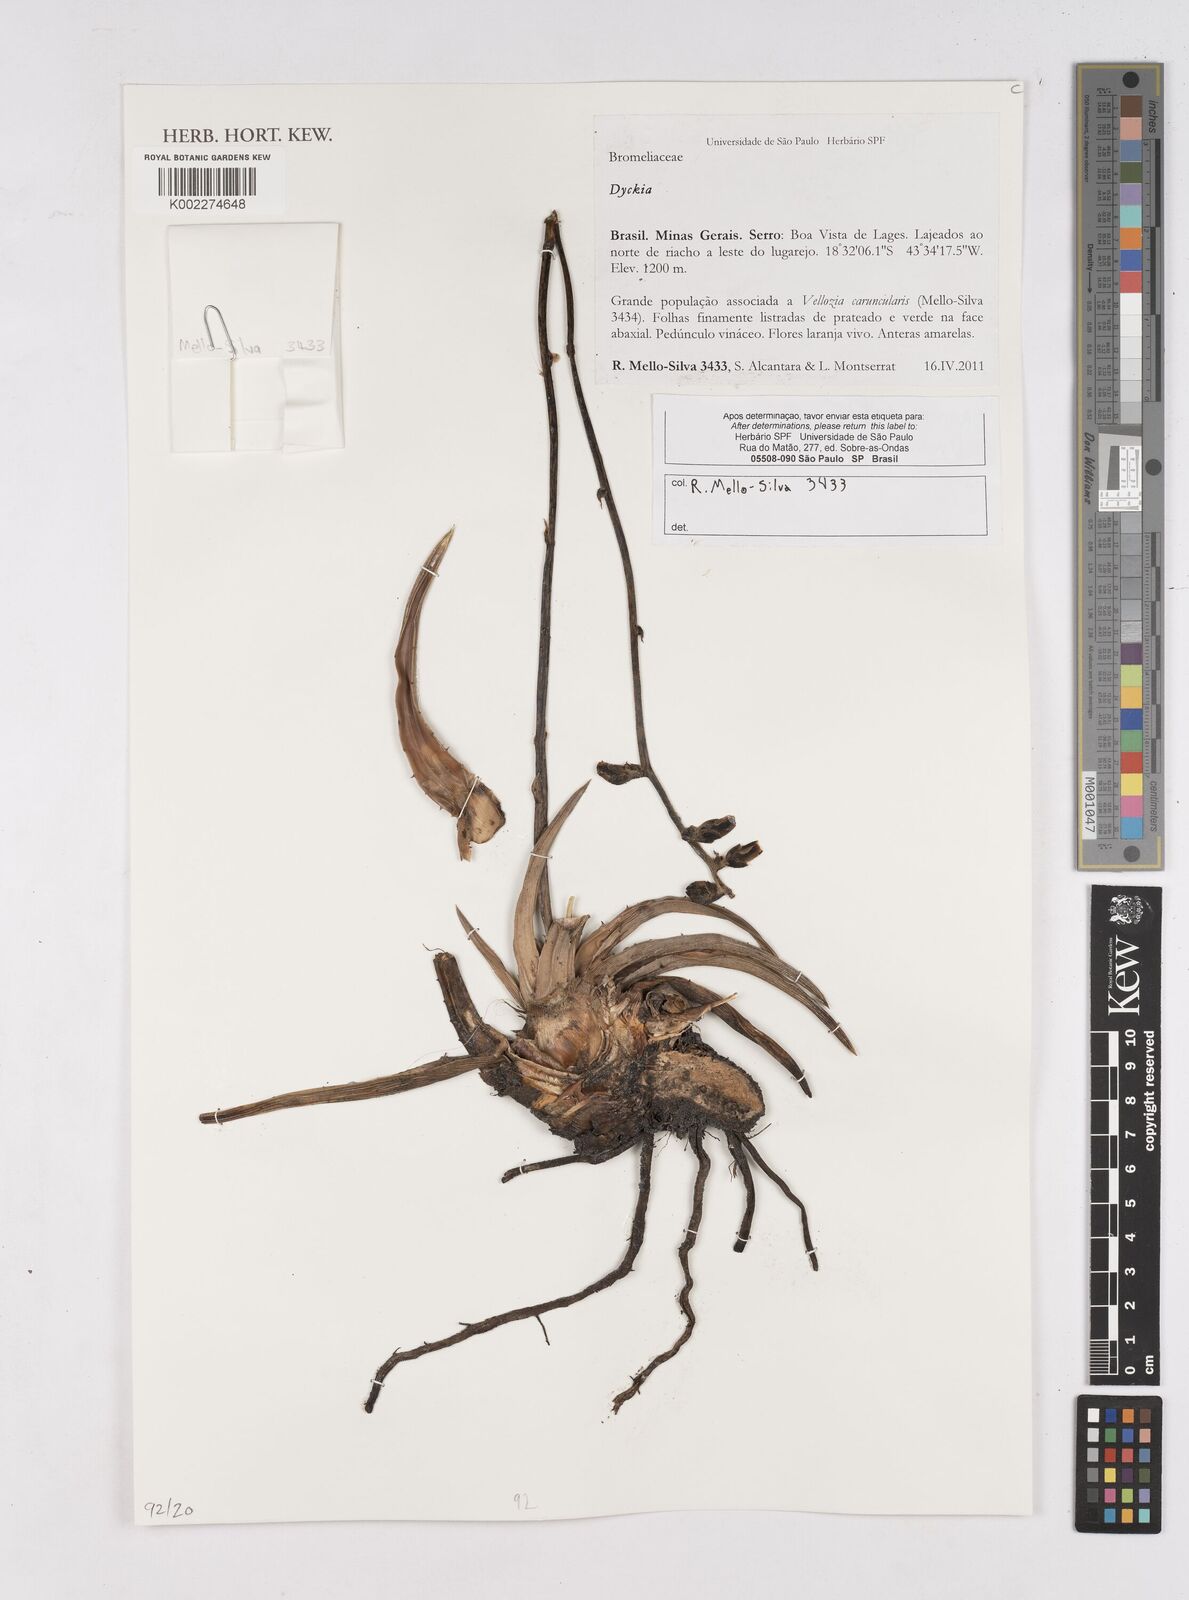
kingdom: Plantae
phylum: Tracheophyta
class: Liliopsida
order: Poales
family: Bromeliaceae
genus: Dyckia
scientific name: Dyckia
